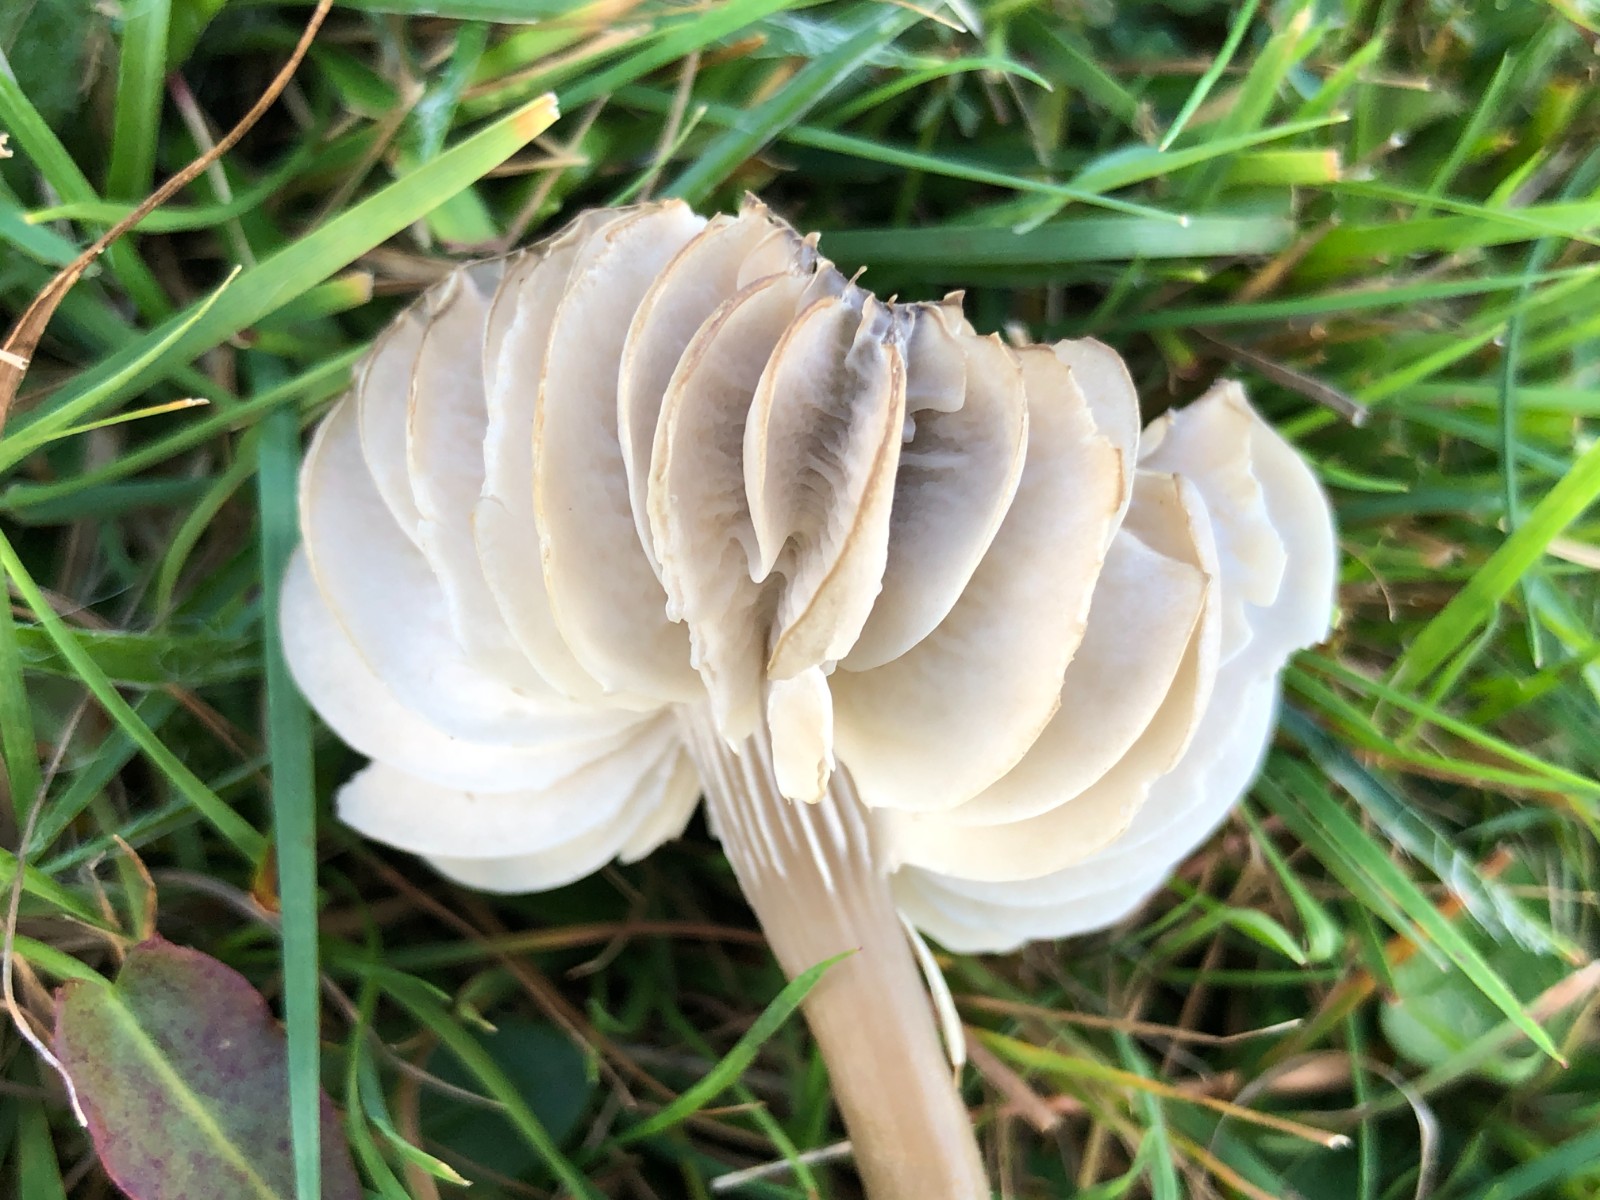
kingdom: Fungi
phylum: Basidiomycota
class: Agaricomycetes
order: Agaricales
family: Hygrophoraceae
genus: Gliophorus
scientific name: Gliophorus irrigatus
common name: slimet vokshat
